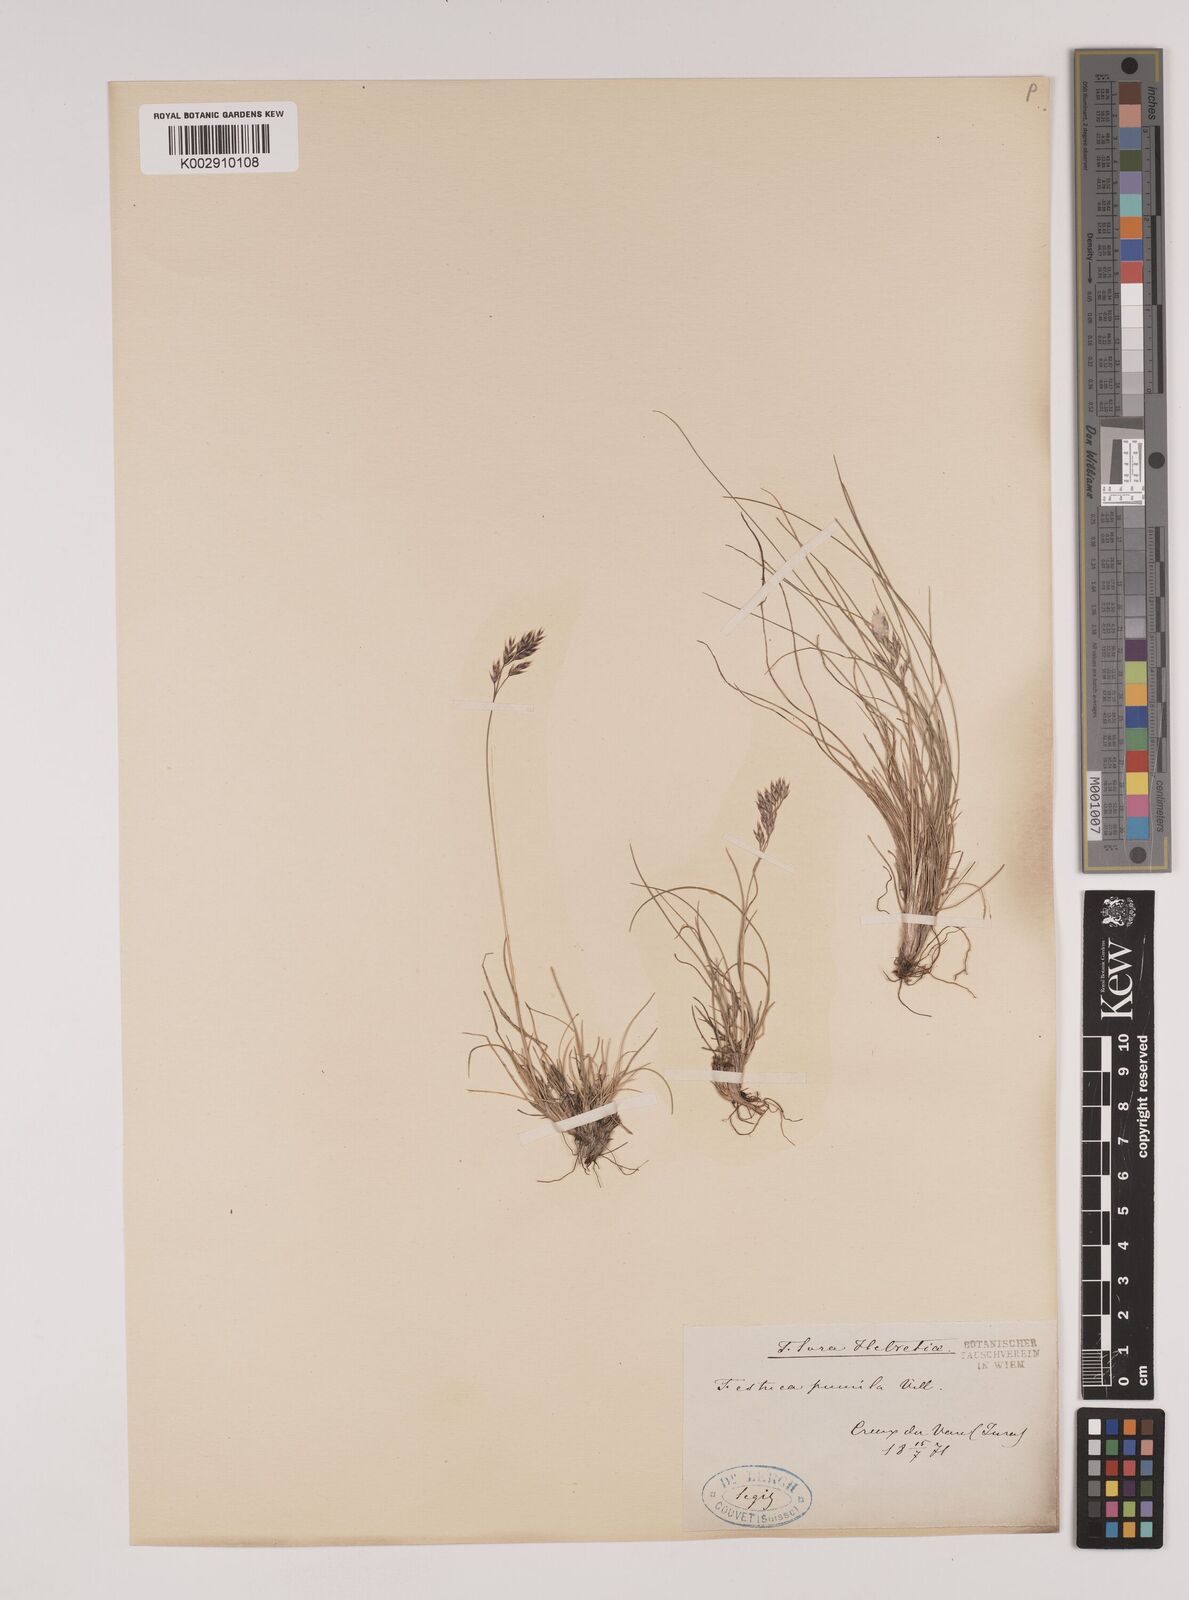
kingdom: Plantae
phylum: Tracheophyta
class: Liliopsida
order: Poales
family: Poaceae
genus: Festuca
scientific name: Festuca
